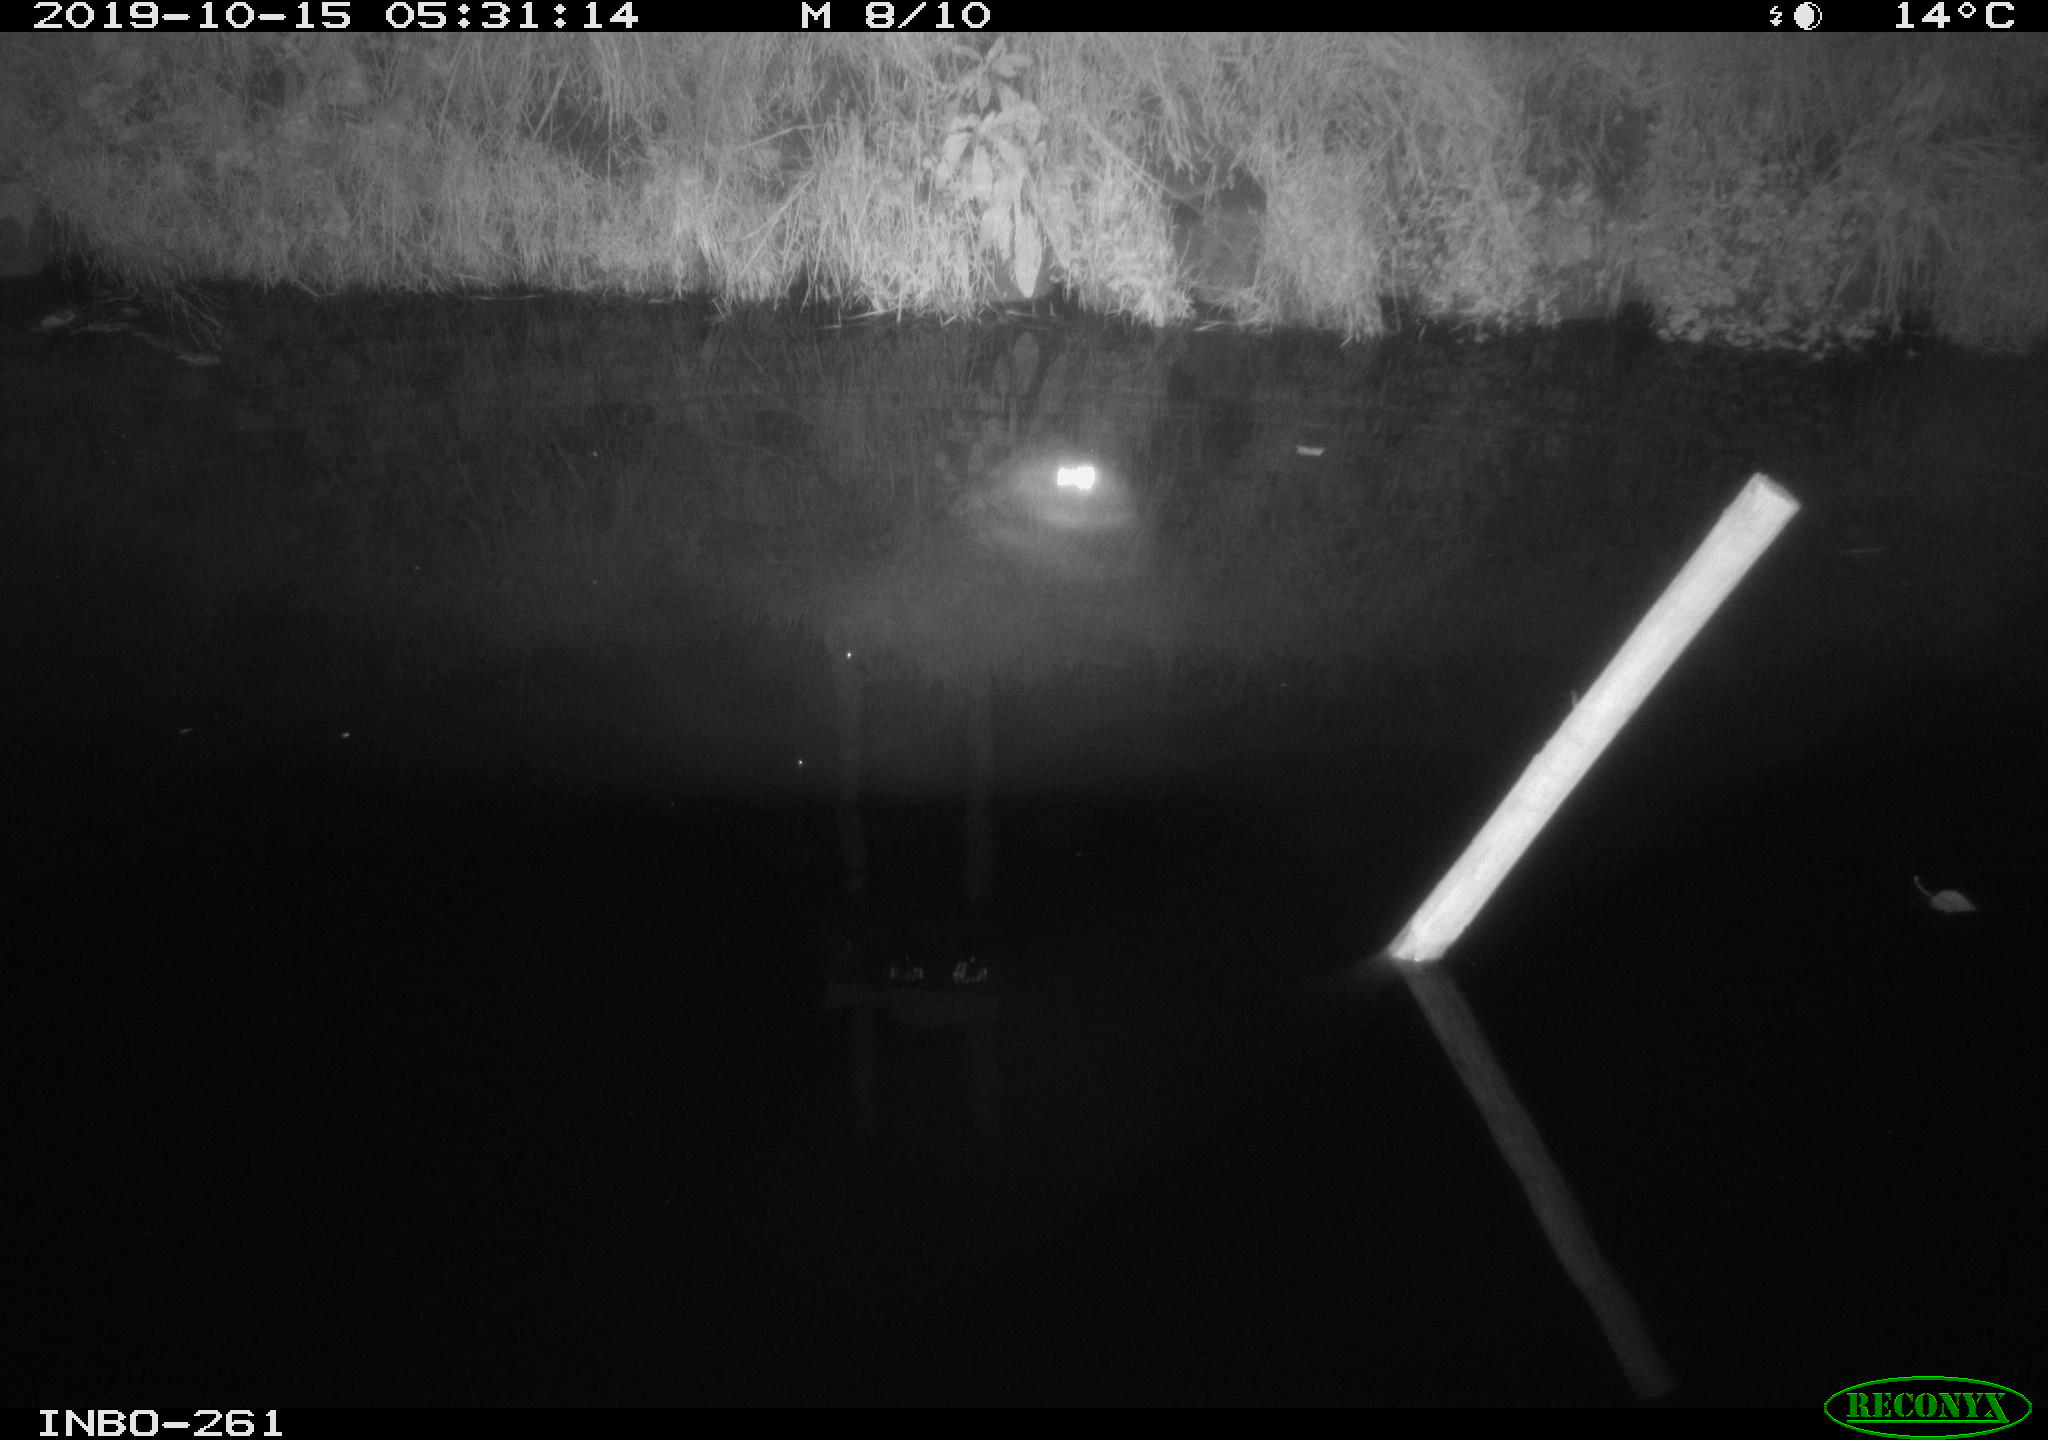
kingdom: Animalia
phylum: Chordata
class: Aves
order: Anseriformes
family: Anatidae
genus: Anas
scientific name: Anas platyrhynchos
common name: Mallard
